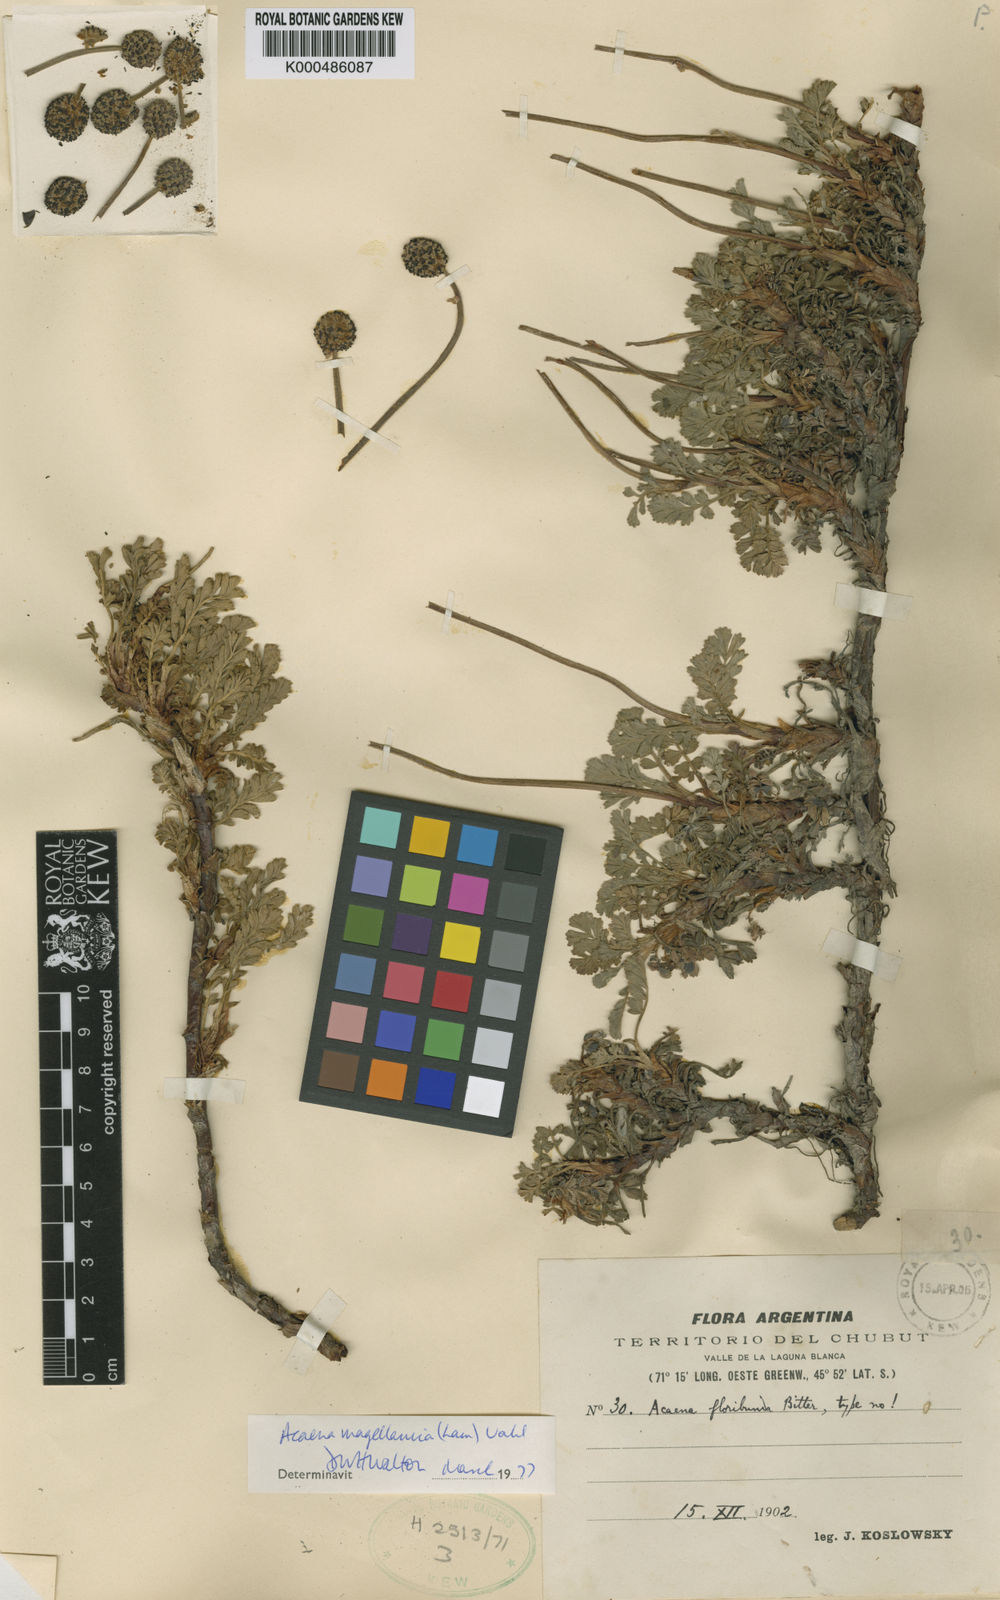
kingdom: Plantae
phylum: Tracheophyta
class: Magnoliopsida
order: Rosales
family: Rosaceae
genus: Acaena
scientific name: Acaena magellanica
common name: New zealand burr
